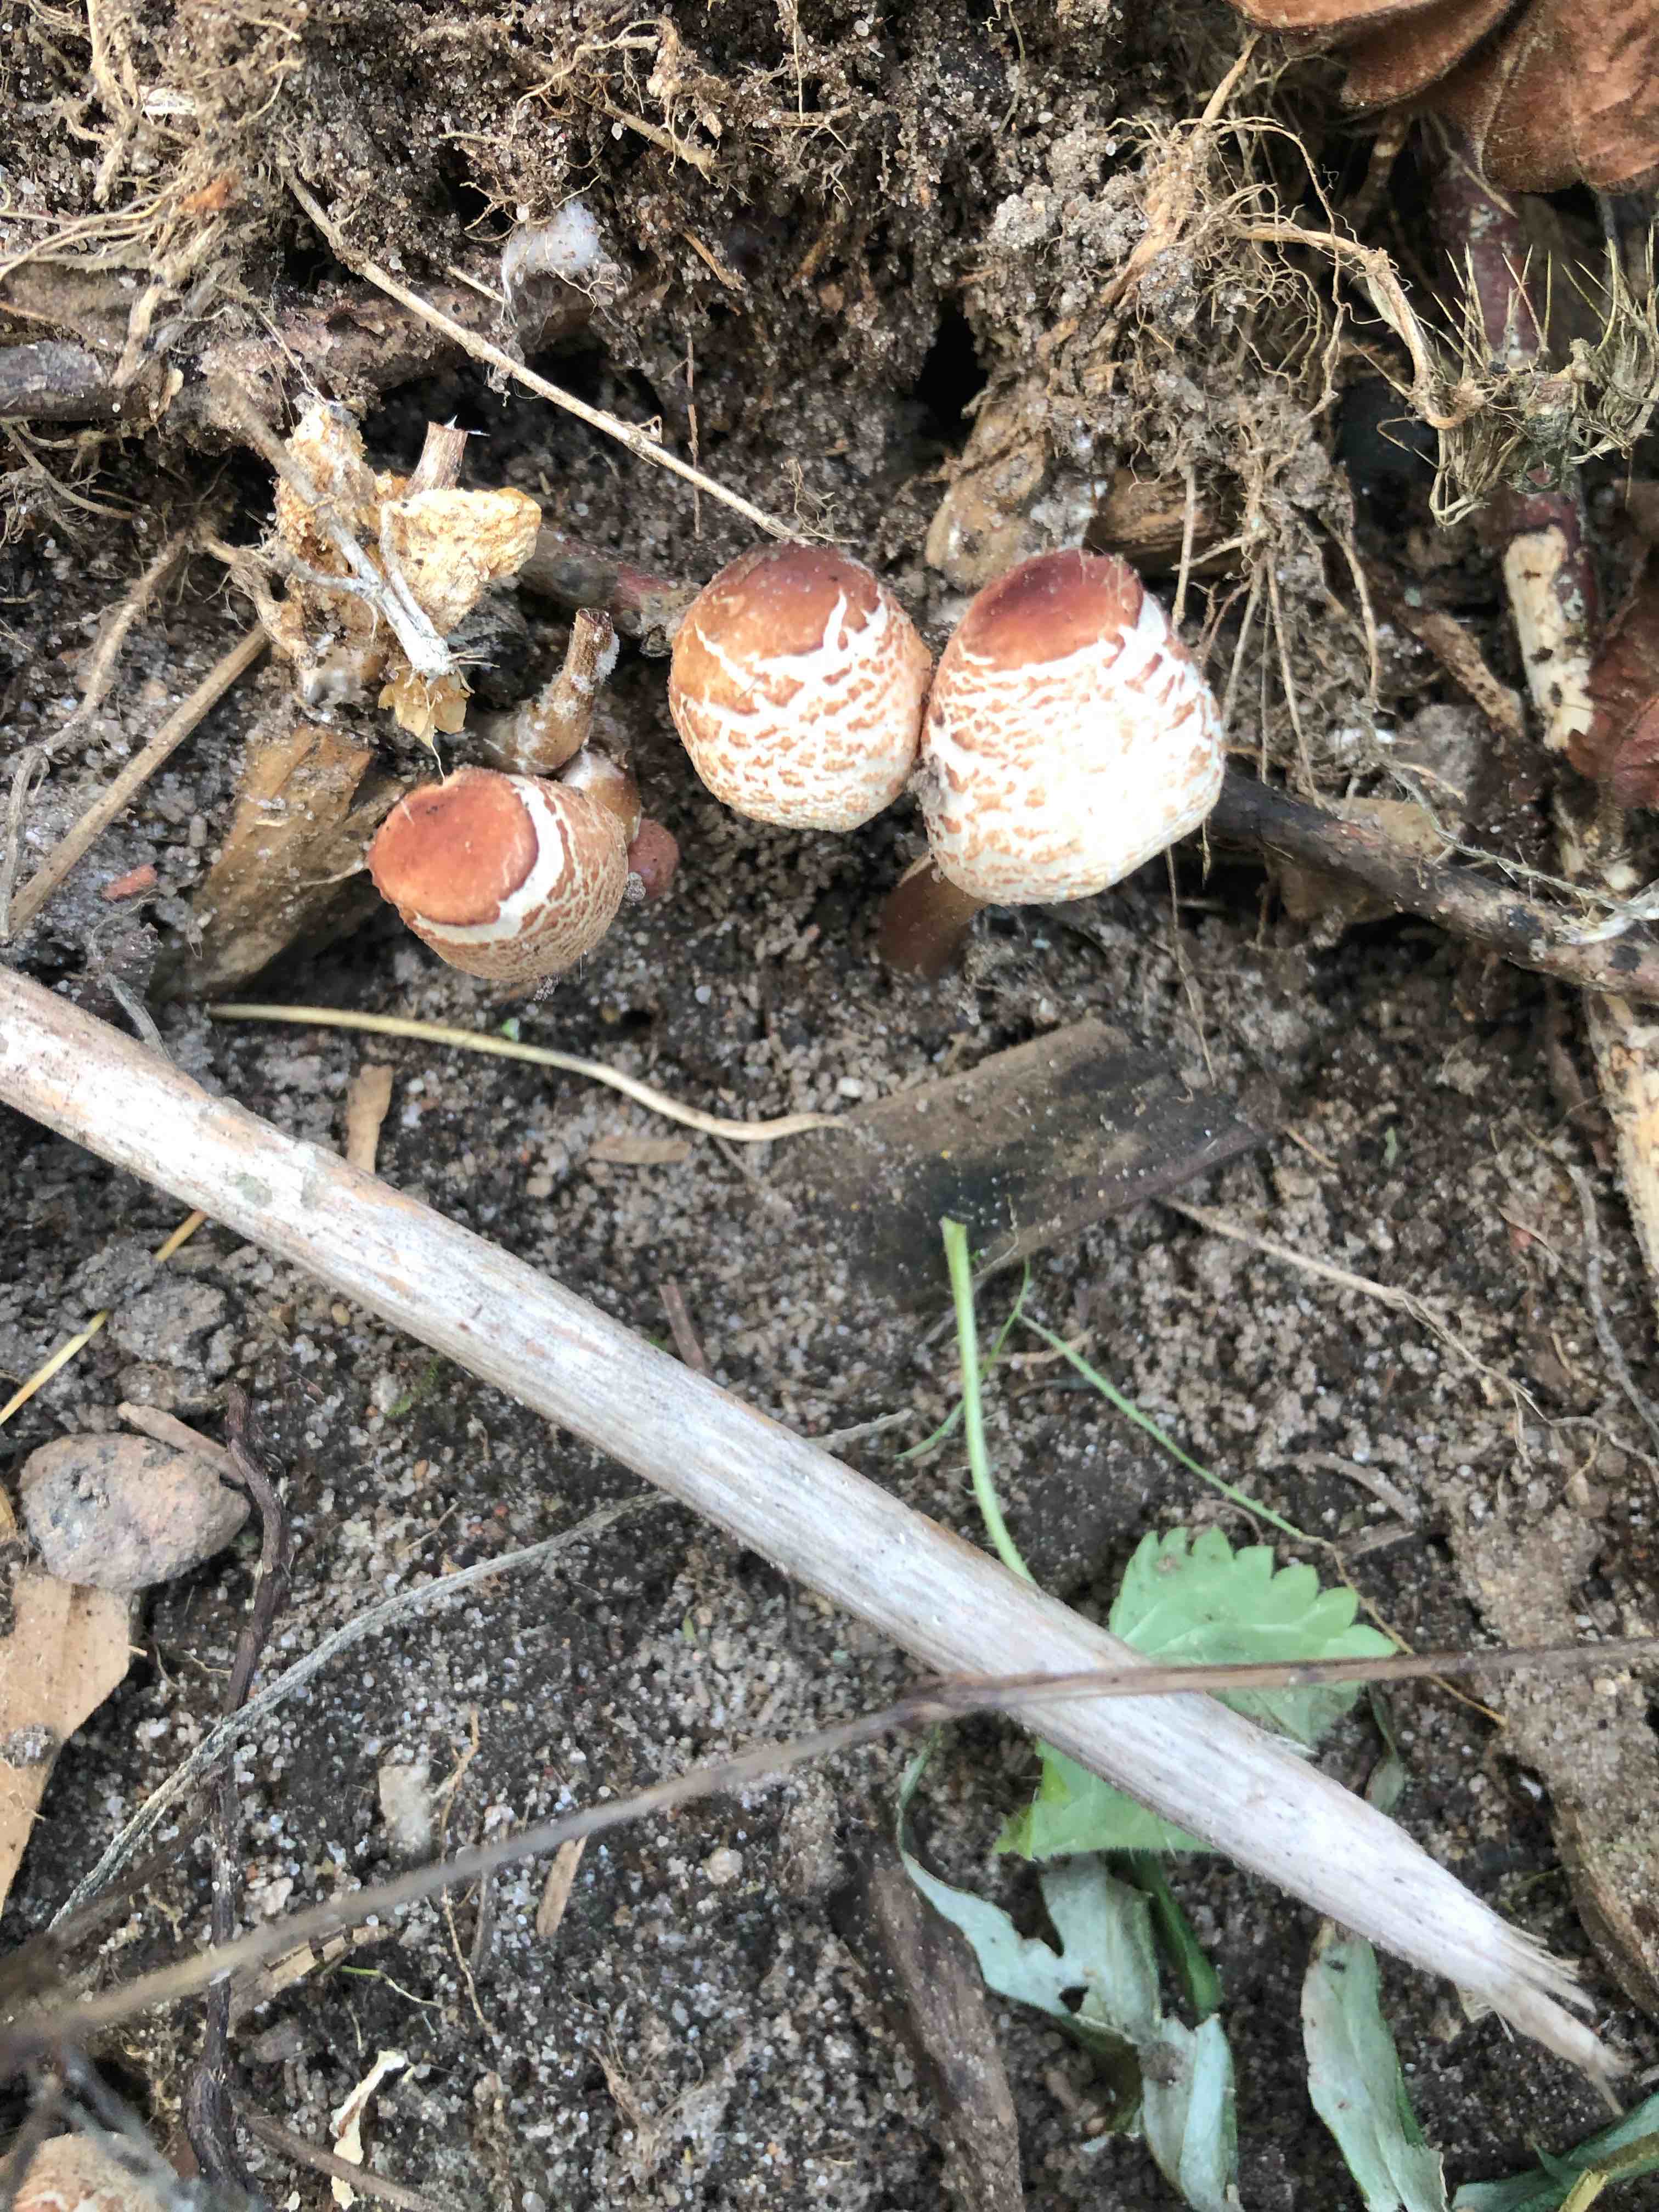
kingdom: Fungi
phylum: Basidiomycota
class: Agaricomycetes
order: Agaricales
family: Agaricaceae
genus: Lepiota
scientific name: Lepiota cristata
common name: stinkende parasolhat
